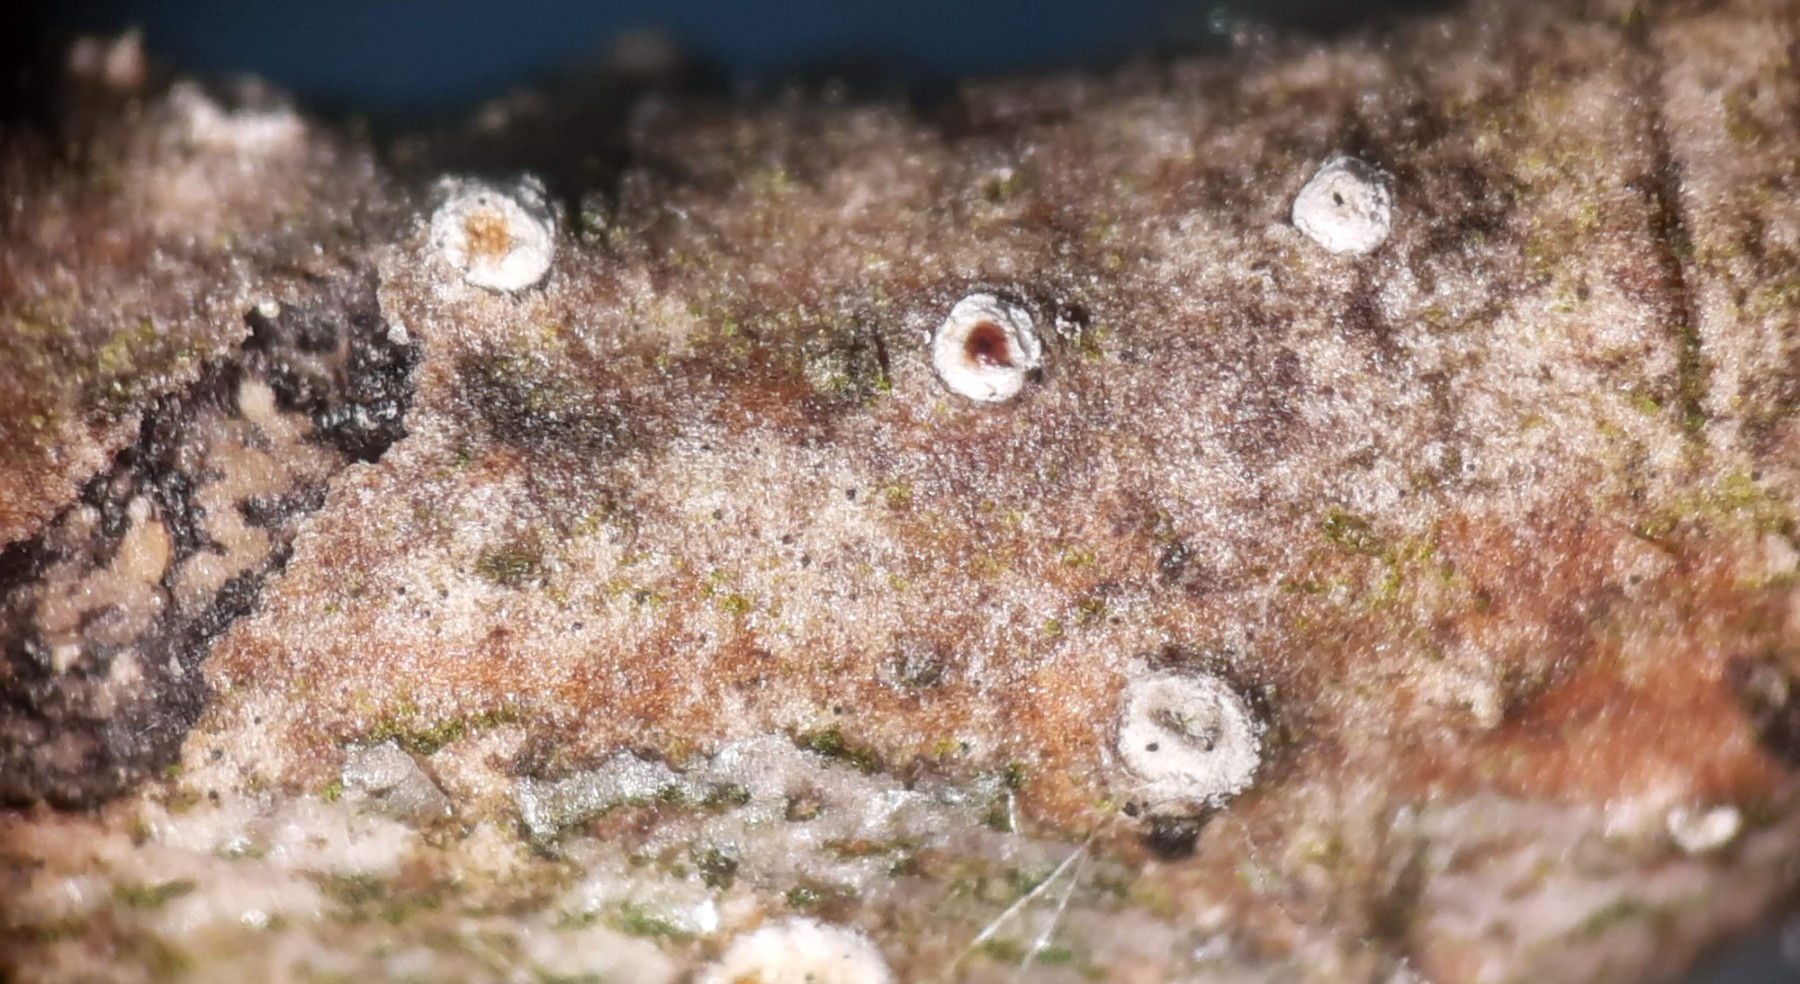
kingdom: Fungi
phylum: Ascomycota
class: Sordariomycetes
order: Diaporthales
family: Valsaceae
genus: Cytospora
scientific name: Cytospora nivea
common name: hvidskivet kulknippe
